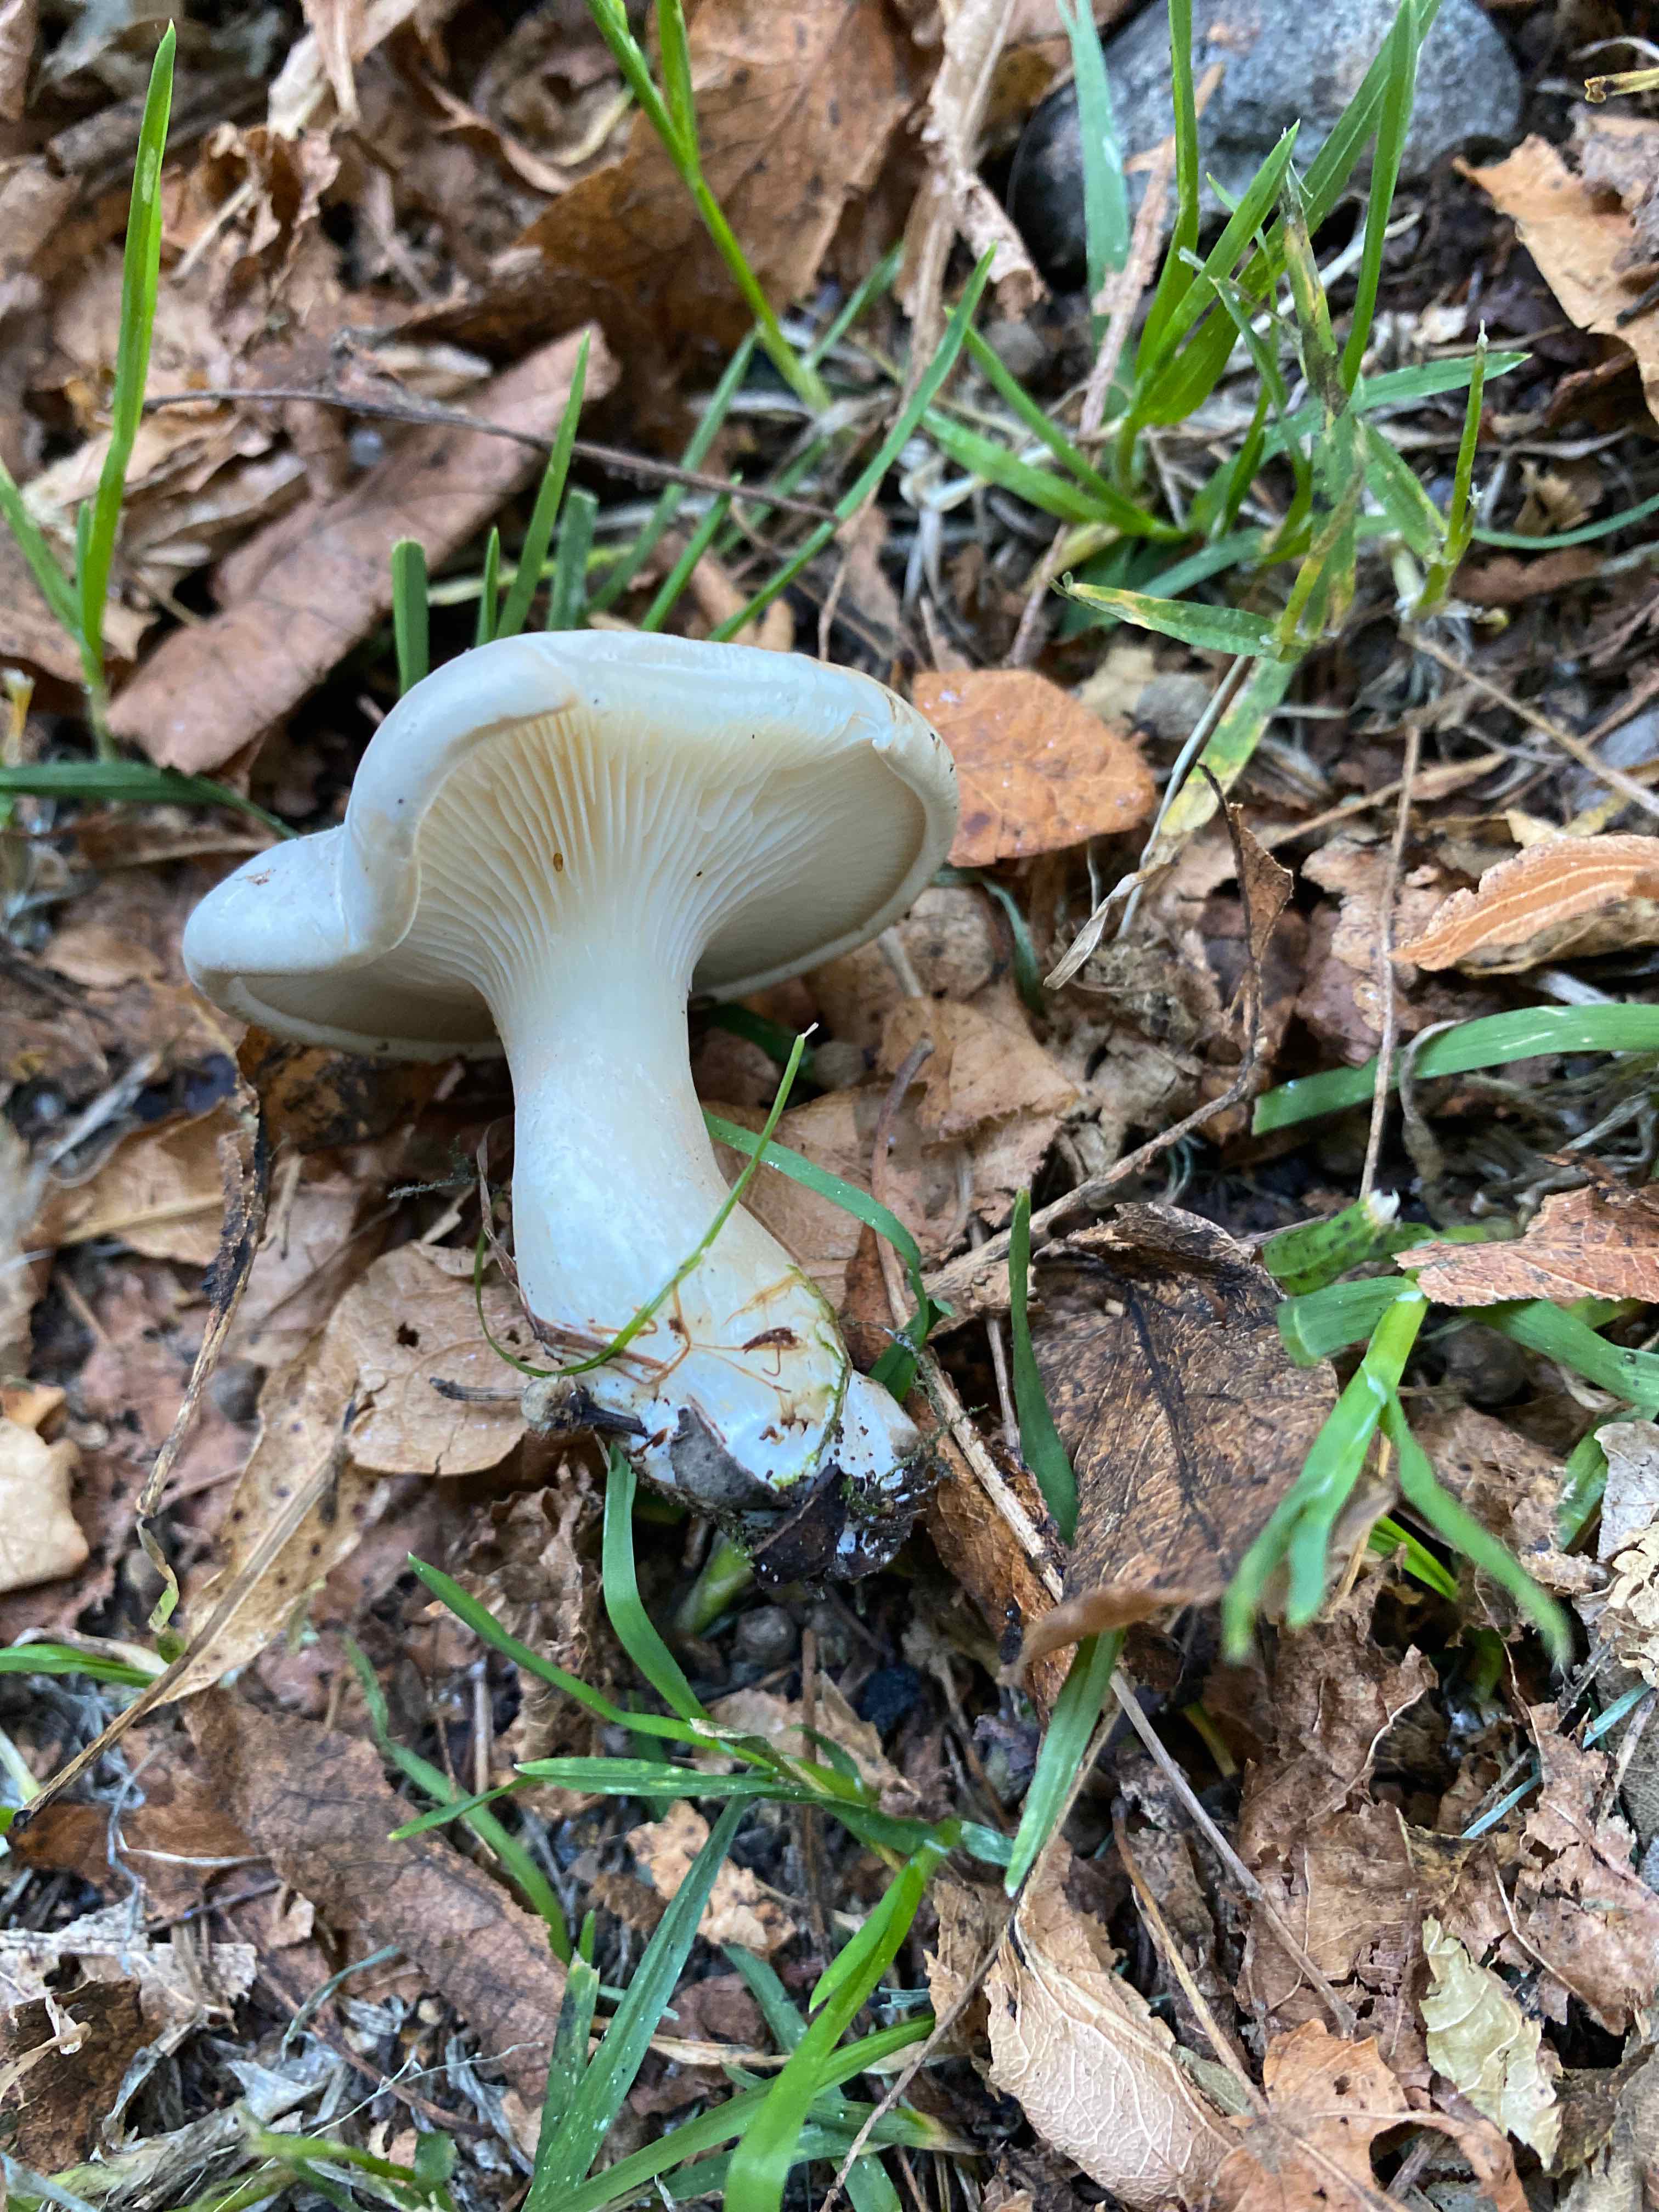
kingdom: Fungi
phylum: Basidiomycota
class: Agaricomycetes
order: Agaricales
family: Entolomataceae
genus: Clitopilus
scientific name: Clitopilus prunulus
